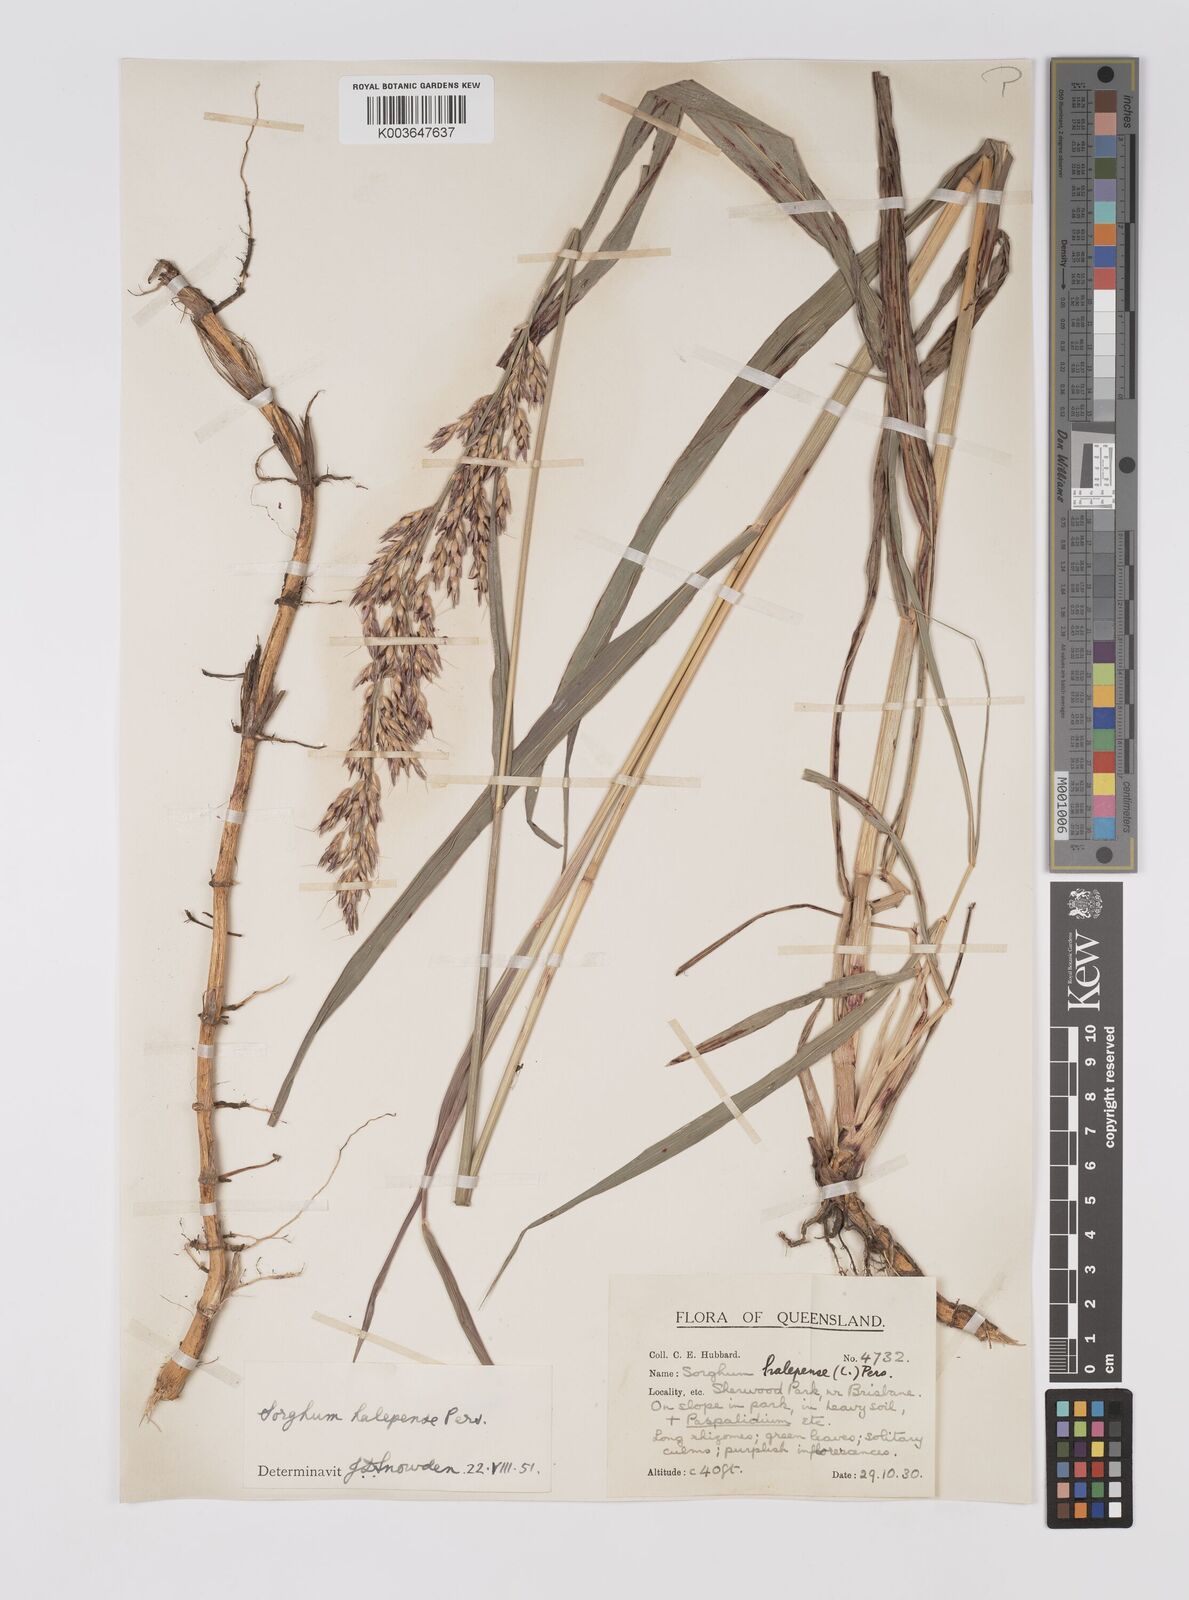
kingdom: Plantae
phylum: Tracheophyta
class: Liliopsida
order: Poales
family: Poaceae
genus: Sorghum
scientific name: Sorghum halepense
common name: Johnson-grass
